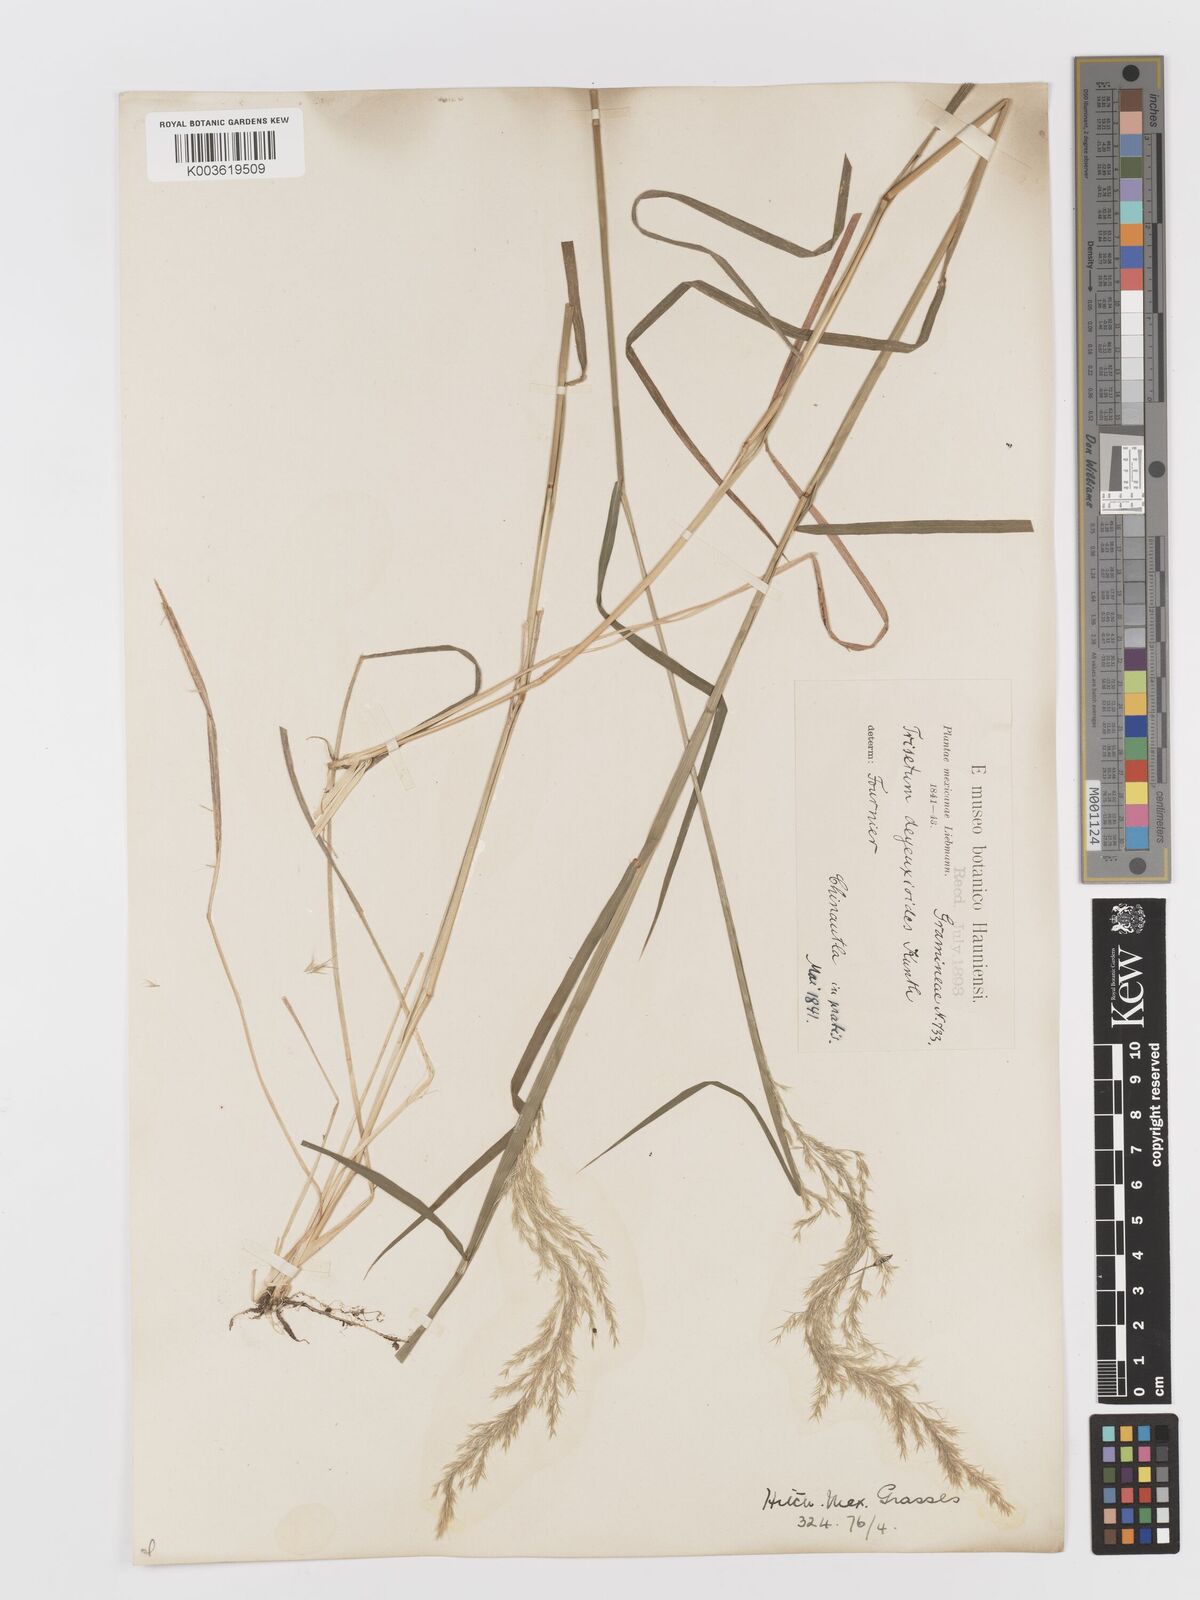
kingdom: Plantae
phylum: Tracheophyta
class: Liliopsida
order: Poales
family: Poaceae
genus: Peyritschia
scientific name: Peyritschia deyeuxioides
